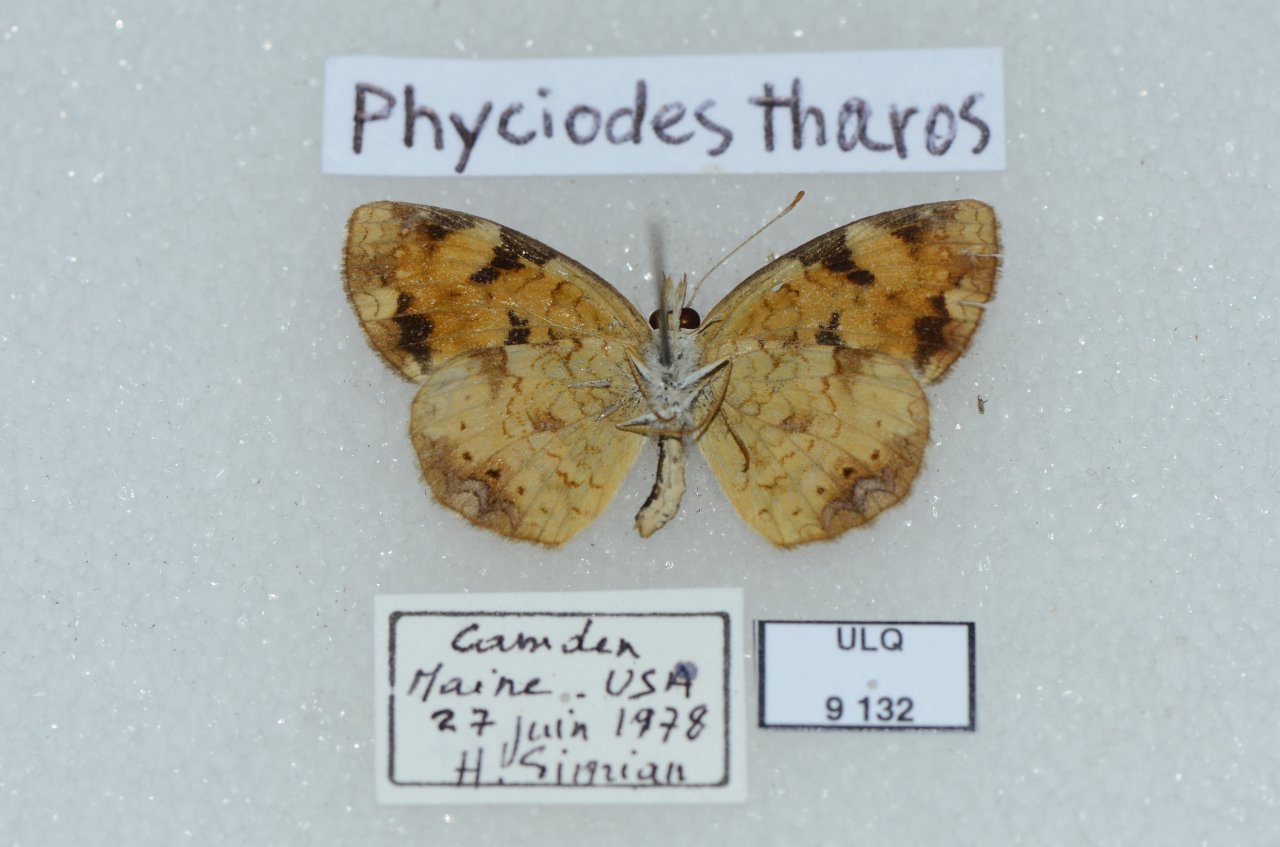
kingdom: Animalia
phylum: Arthropoda
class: Insecta
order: Lepidoptera
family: Nymphalidae
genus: Phyciodes
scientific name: Phyciodes tharos
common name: Pearl Crescent
